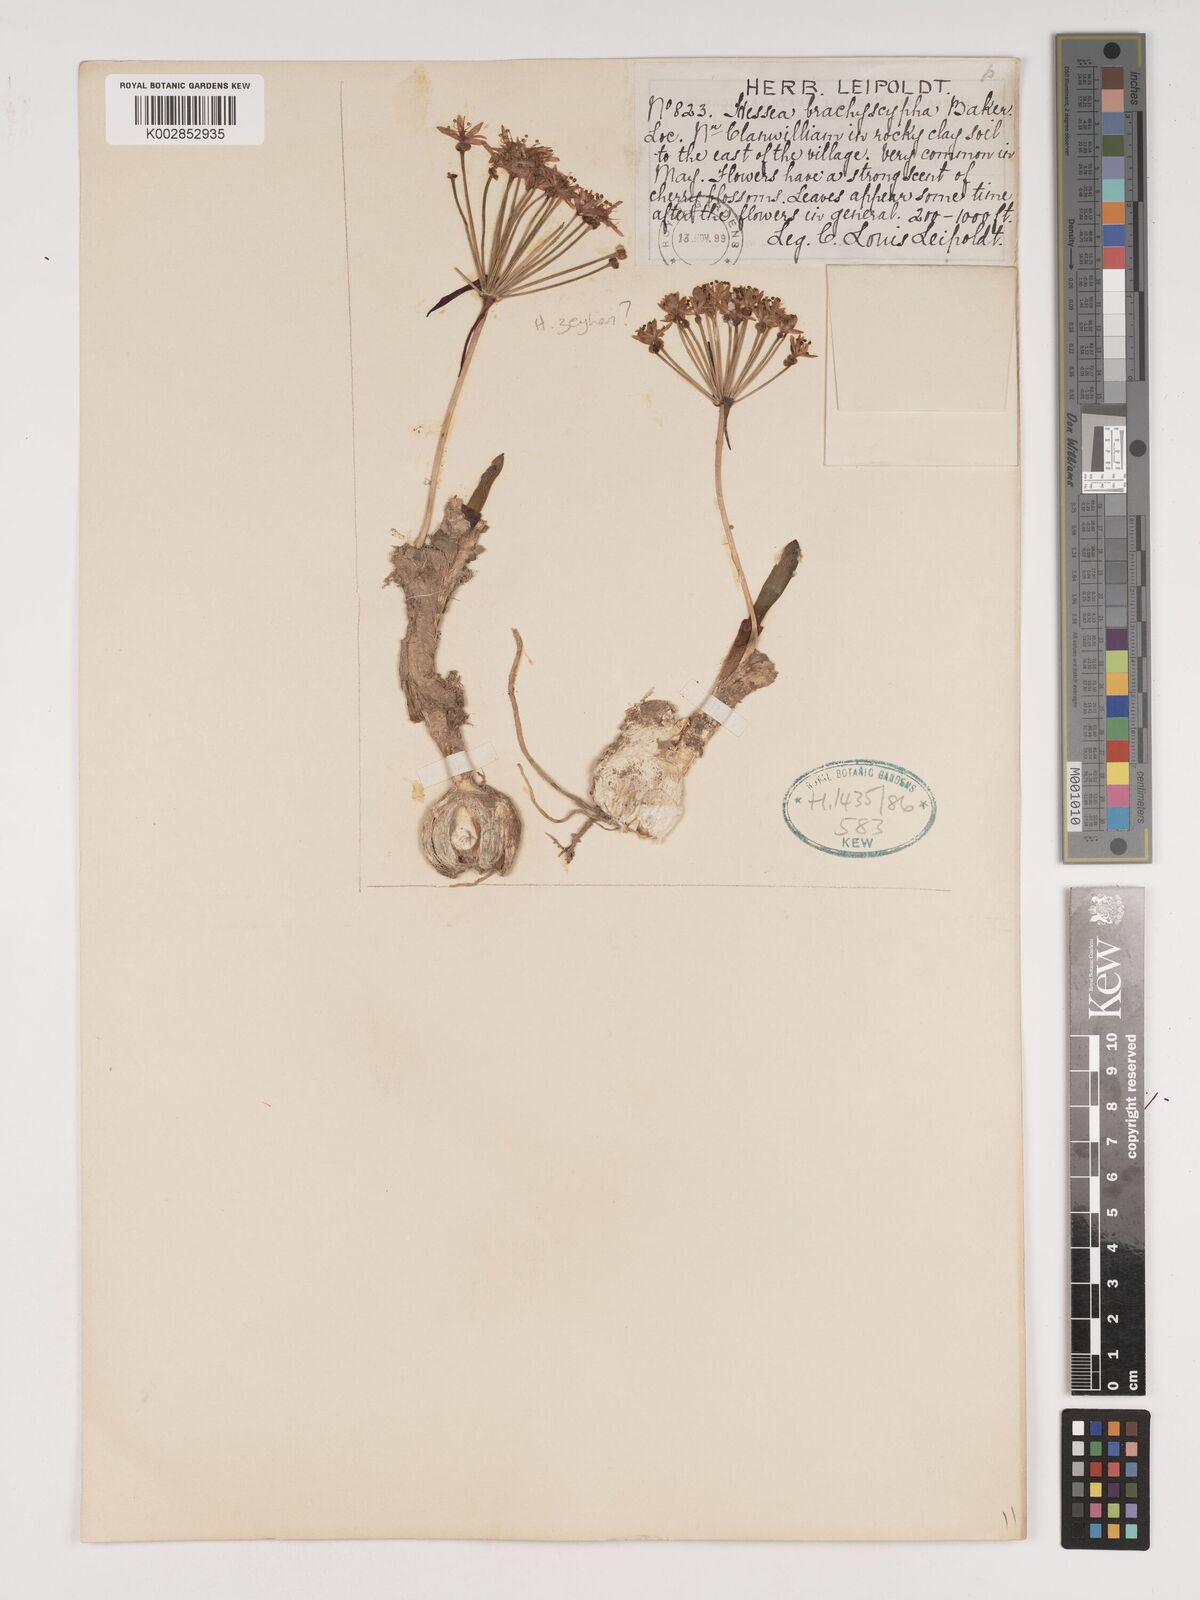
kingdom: Plantae
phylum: Tracheophyta
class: Liliopsida
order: Asparagales
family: Amaryllidaceae
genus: Hessea
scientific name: Hessea breviflora
